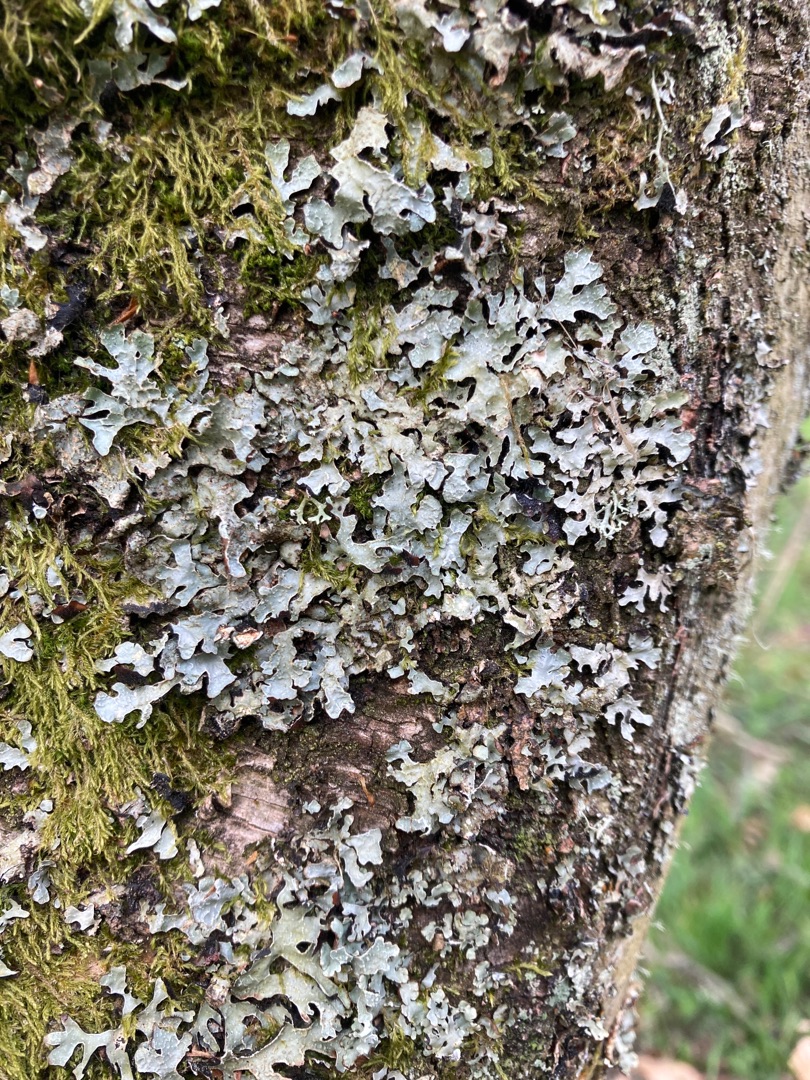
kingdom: Fungi
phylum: Ascomycota
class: Lecanoromycetes
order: Lecanorales
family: Parmeliaceae
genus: Parmelia
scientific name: Parmelia sulcata
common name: Rynket skållav
